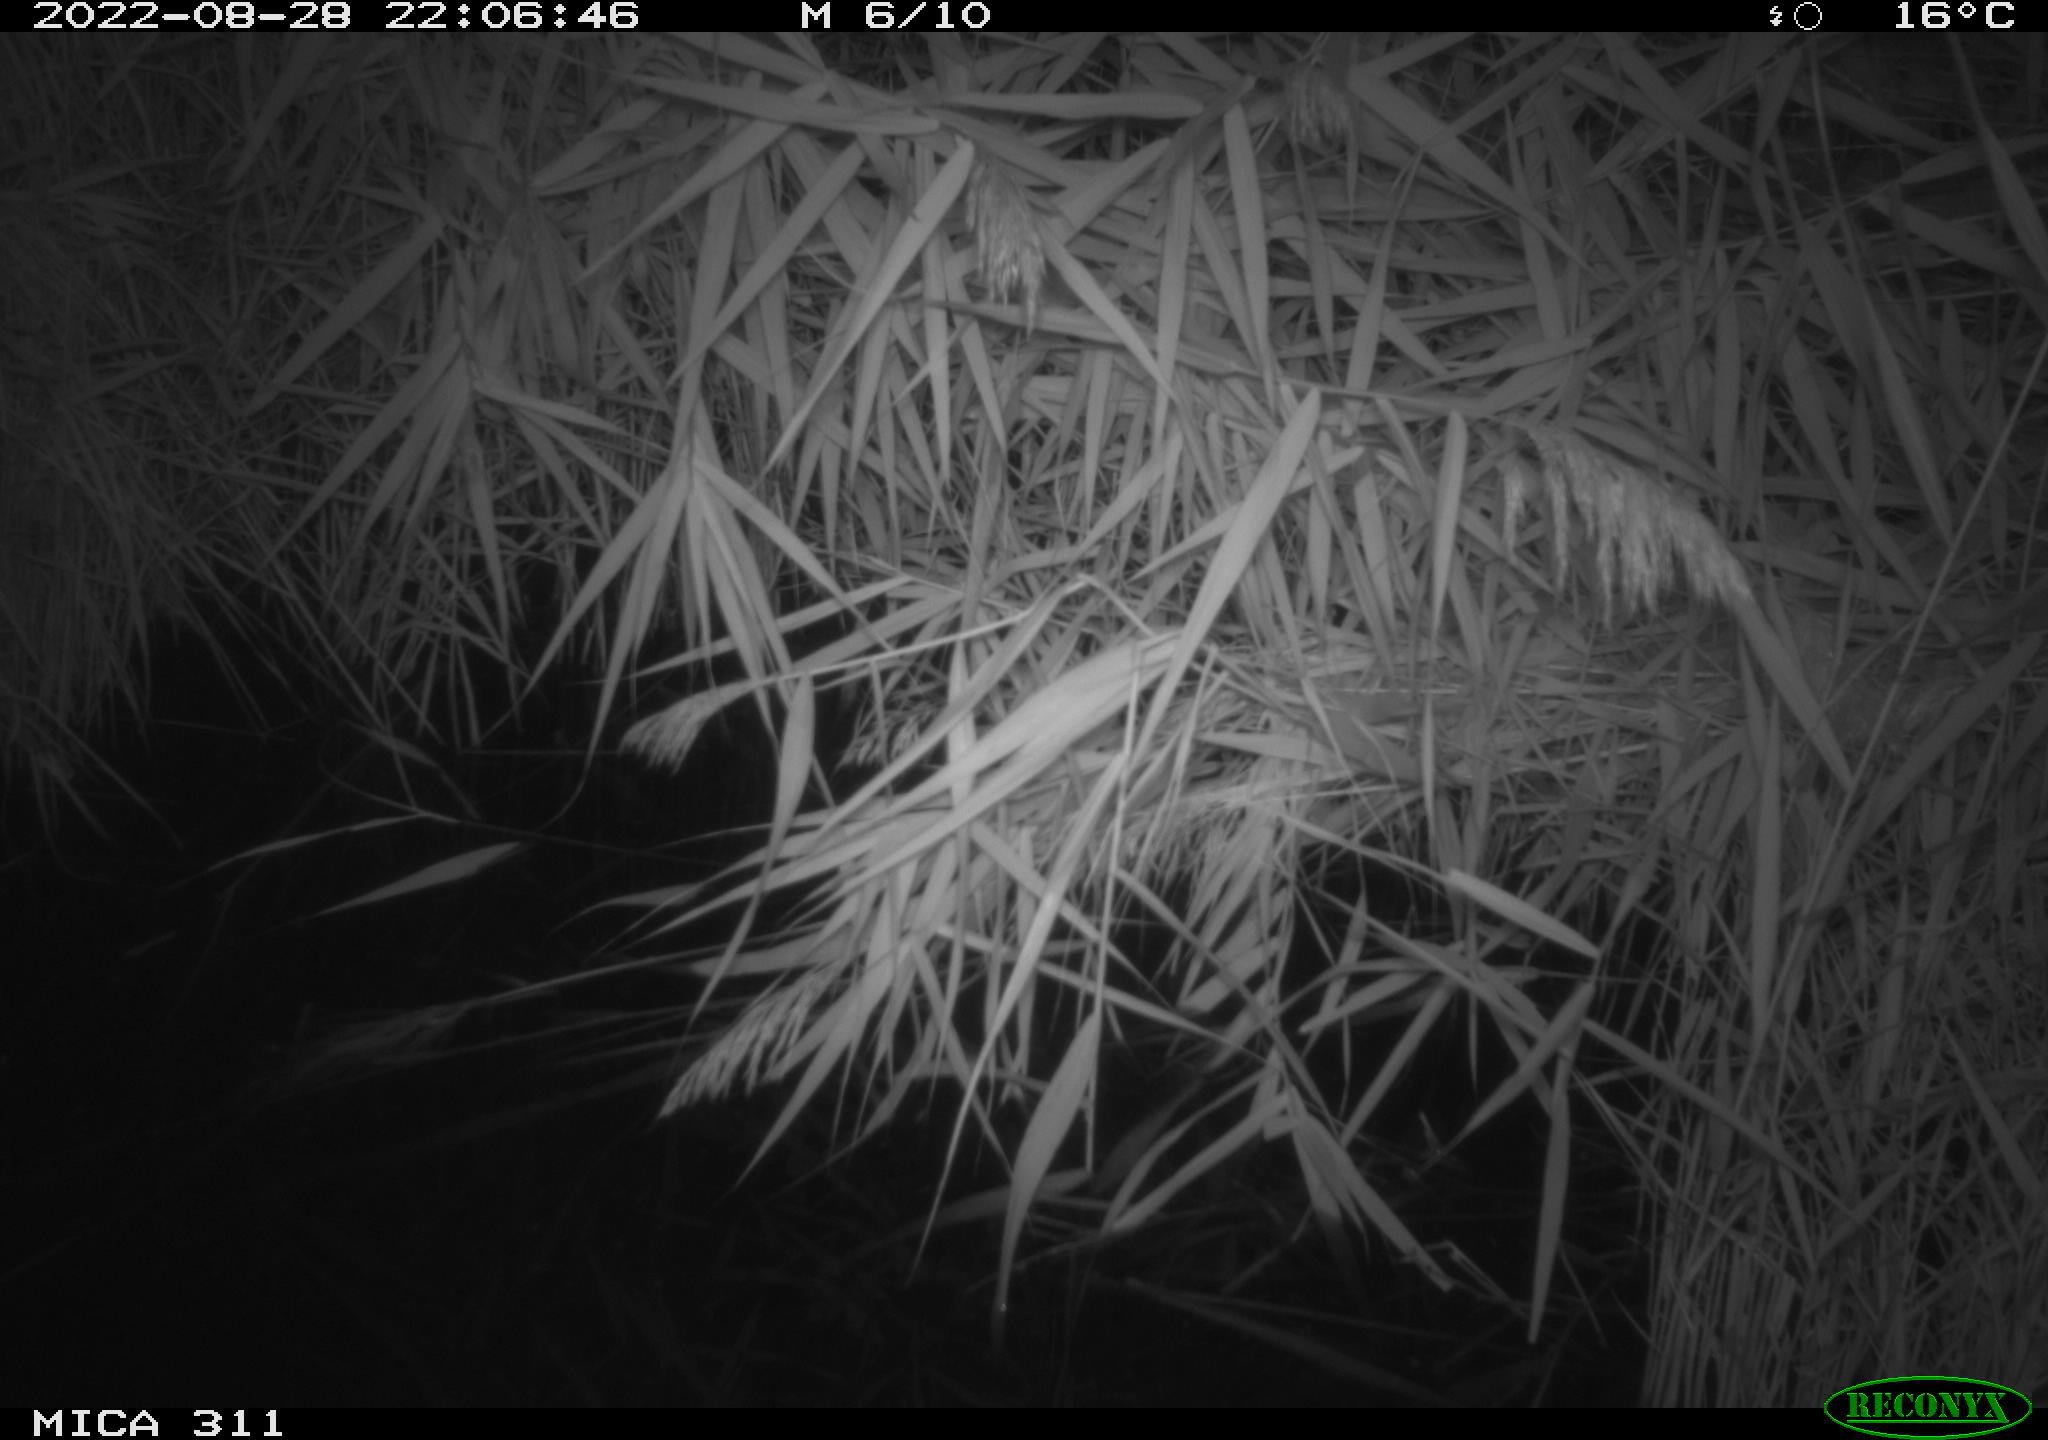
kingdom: Animalia
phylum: Chordata
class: Mammalia
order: Rodentia
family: Muridae
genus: Rattus
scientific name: Rattus norvegicus
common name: Brown rat
